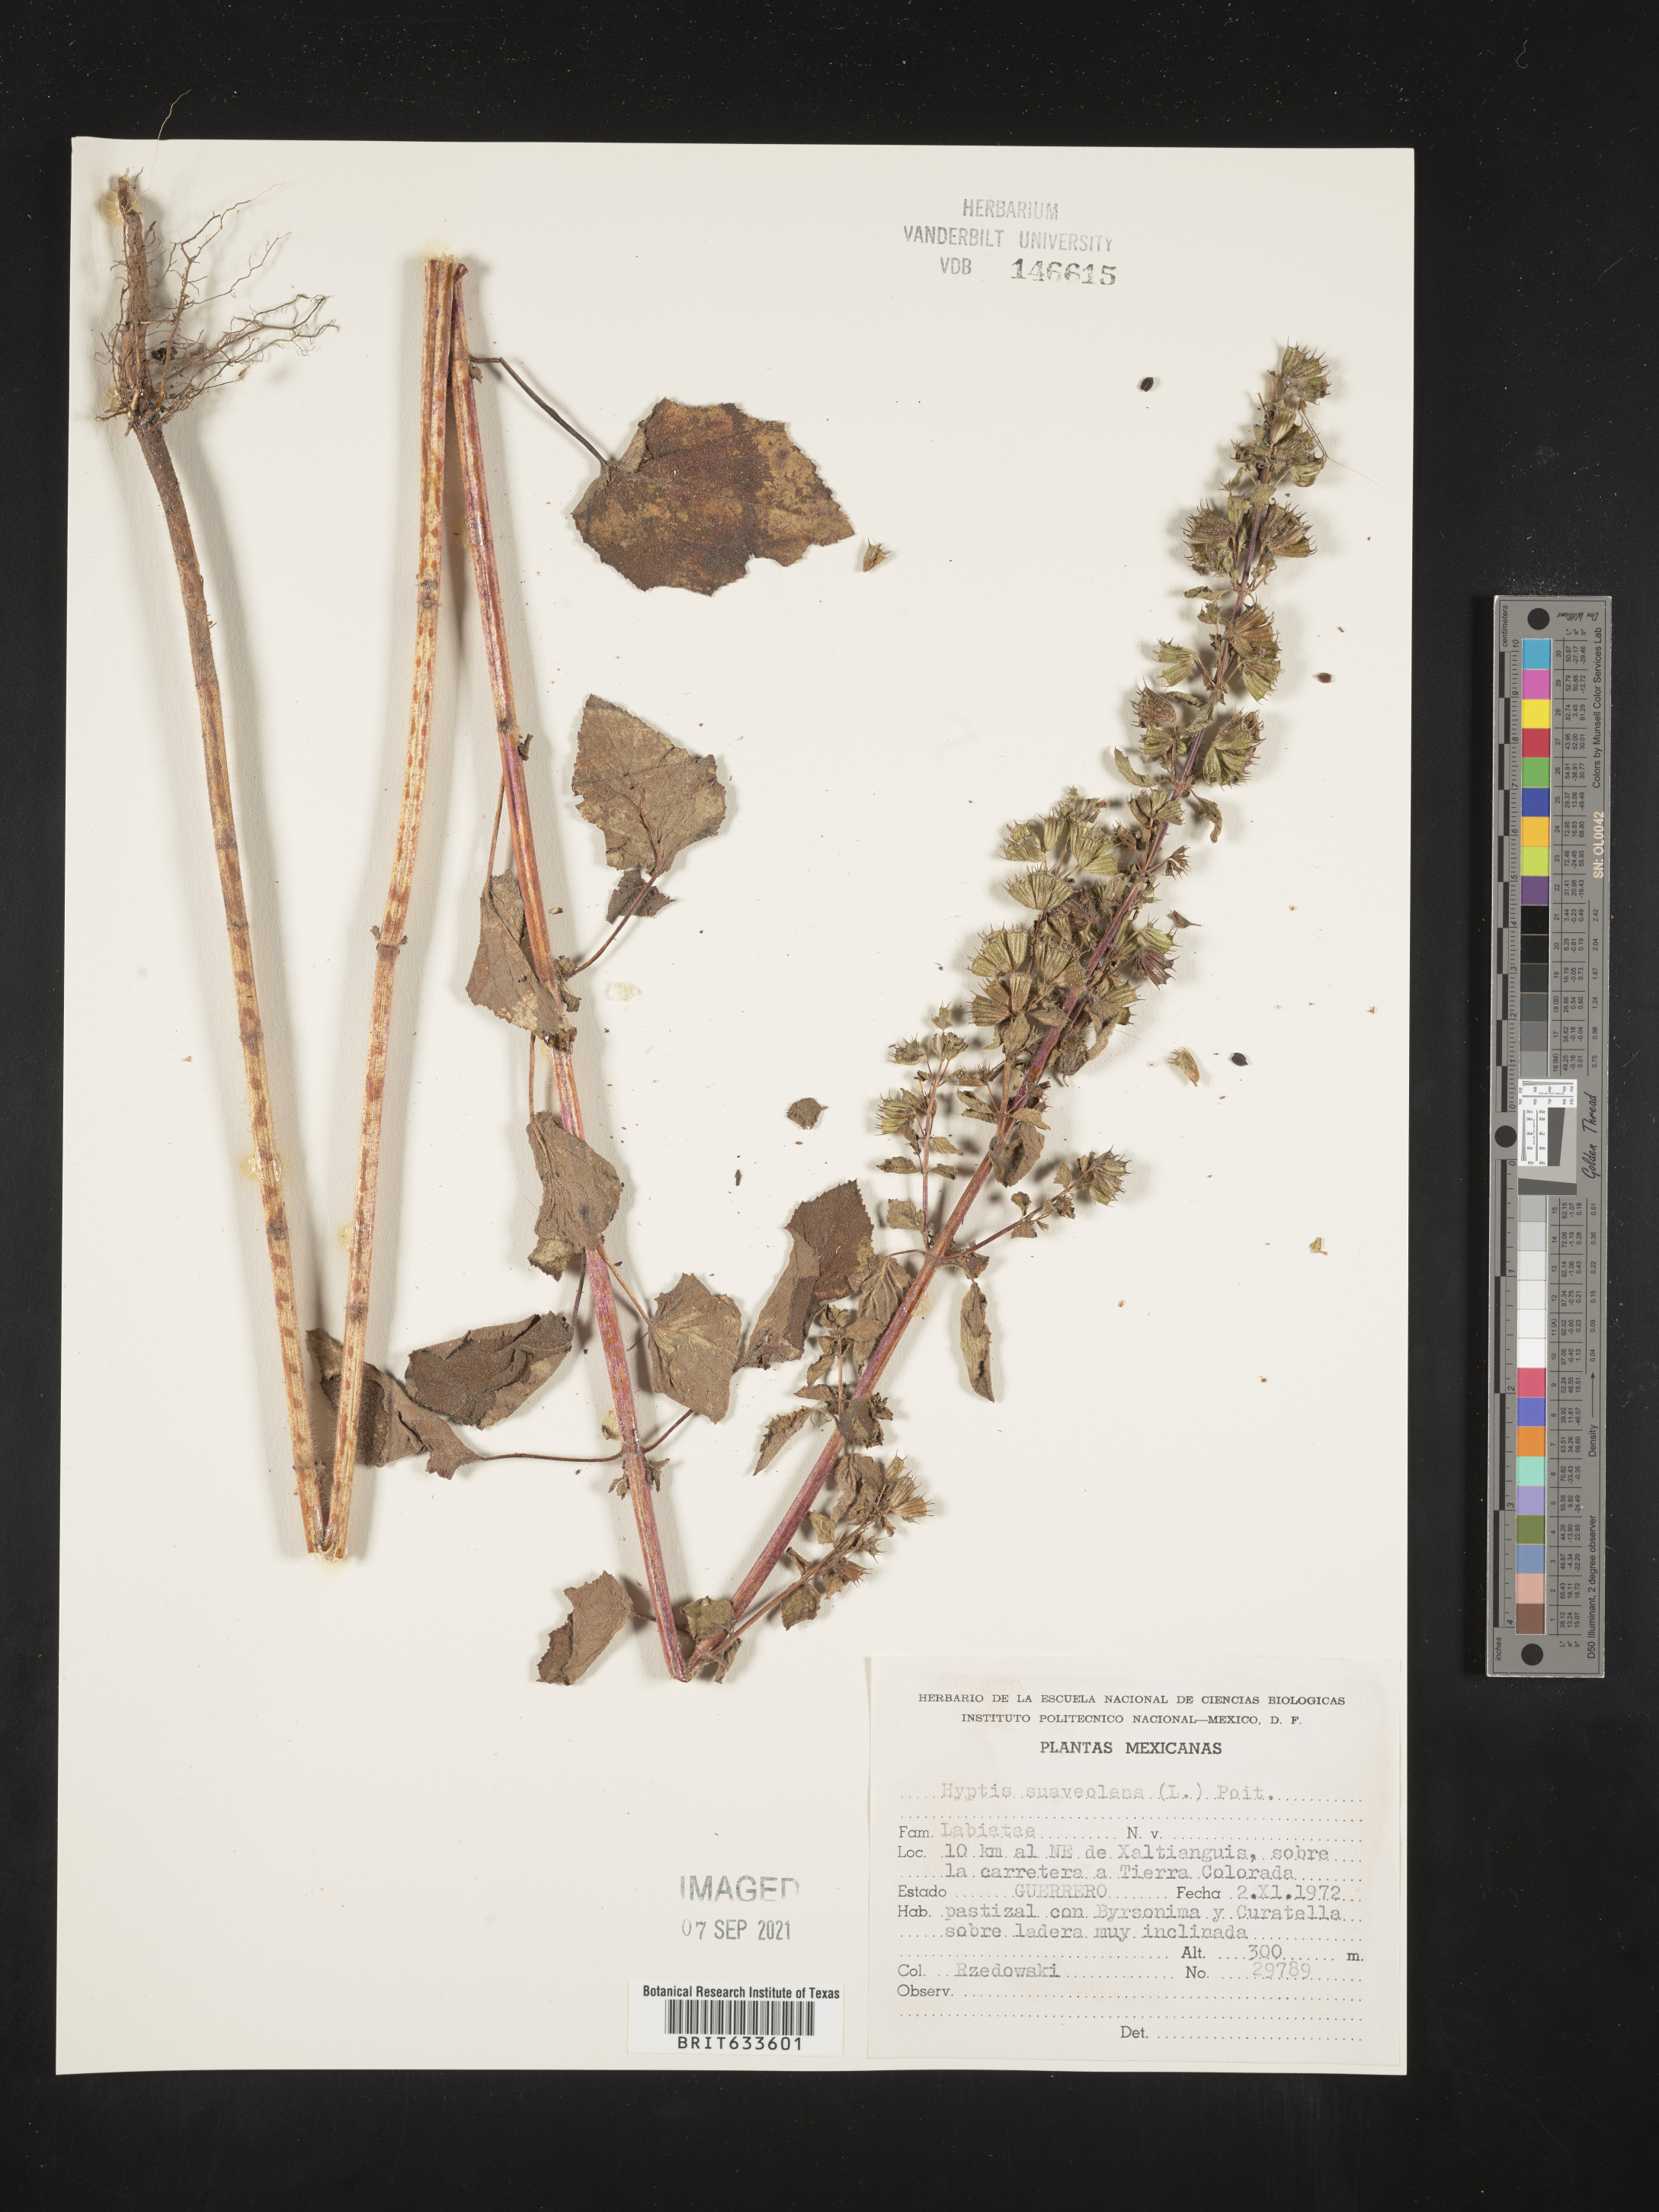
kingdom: Plantae
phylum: Tracheophyta
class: Magnoliopsida
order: Lamiales
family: Lamiaceae
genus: Hyptis
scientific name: Hyptis
